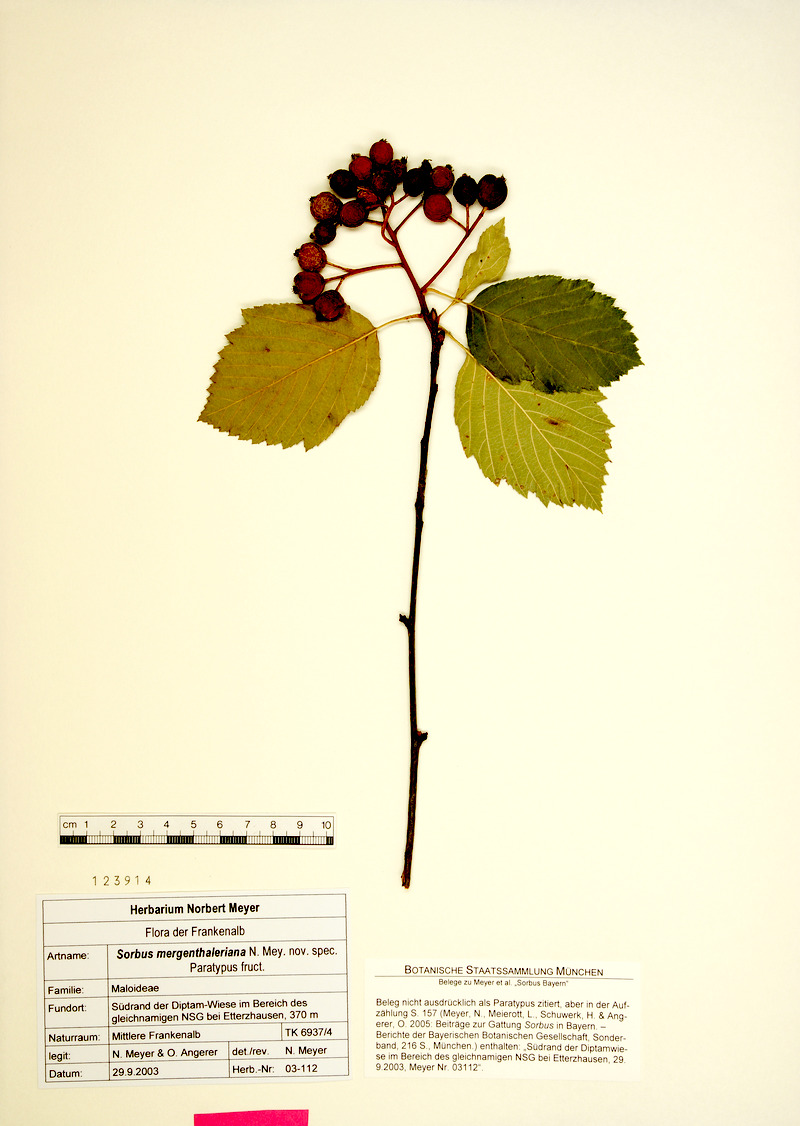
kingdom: Plantae
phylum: Tracheophyta
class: Magnoliopsida
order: Rosales
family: Rosaceae
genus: Karpatiosorbus
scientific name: Karpatiosorbus mergenthaleriana
